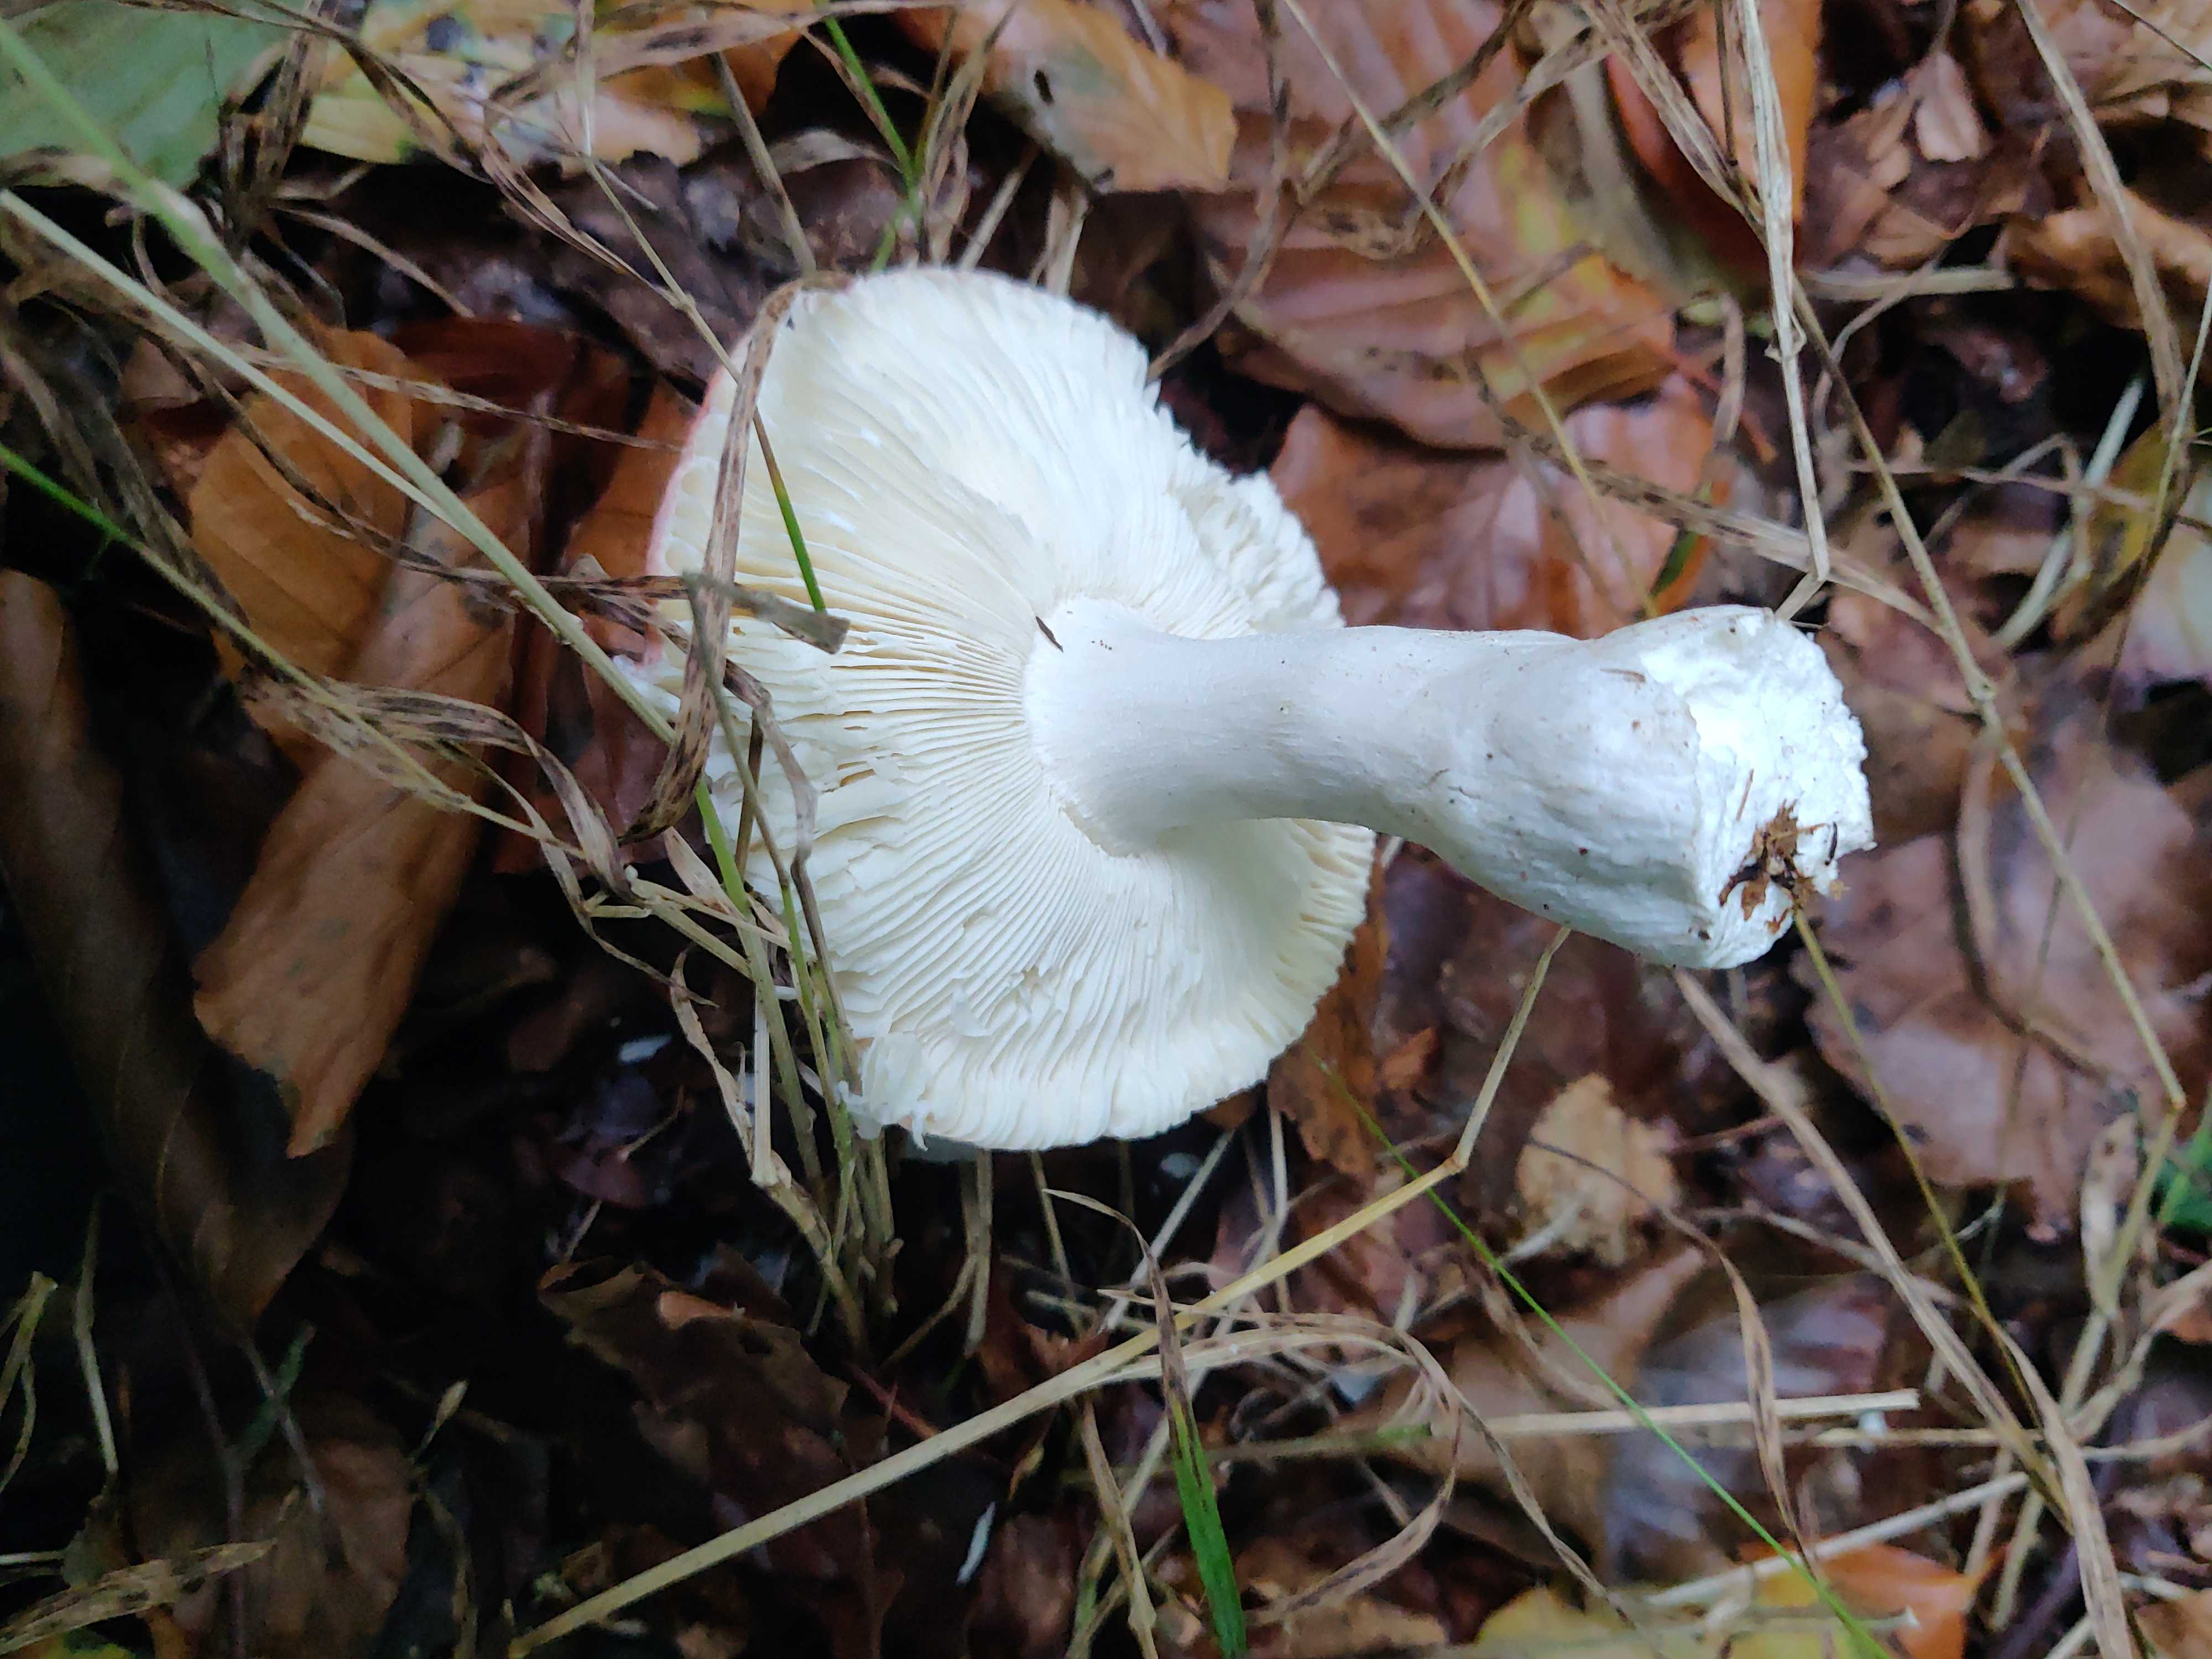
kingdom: Fungi
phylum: Basidiomycota
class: Agaricomycetes
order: Russulales
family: Russulaceae
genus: Russula
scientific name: Russula aurora
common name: rosa skørhat
